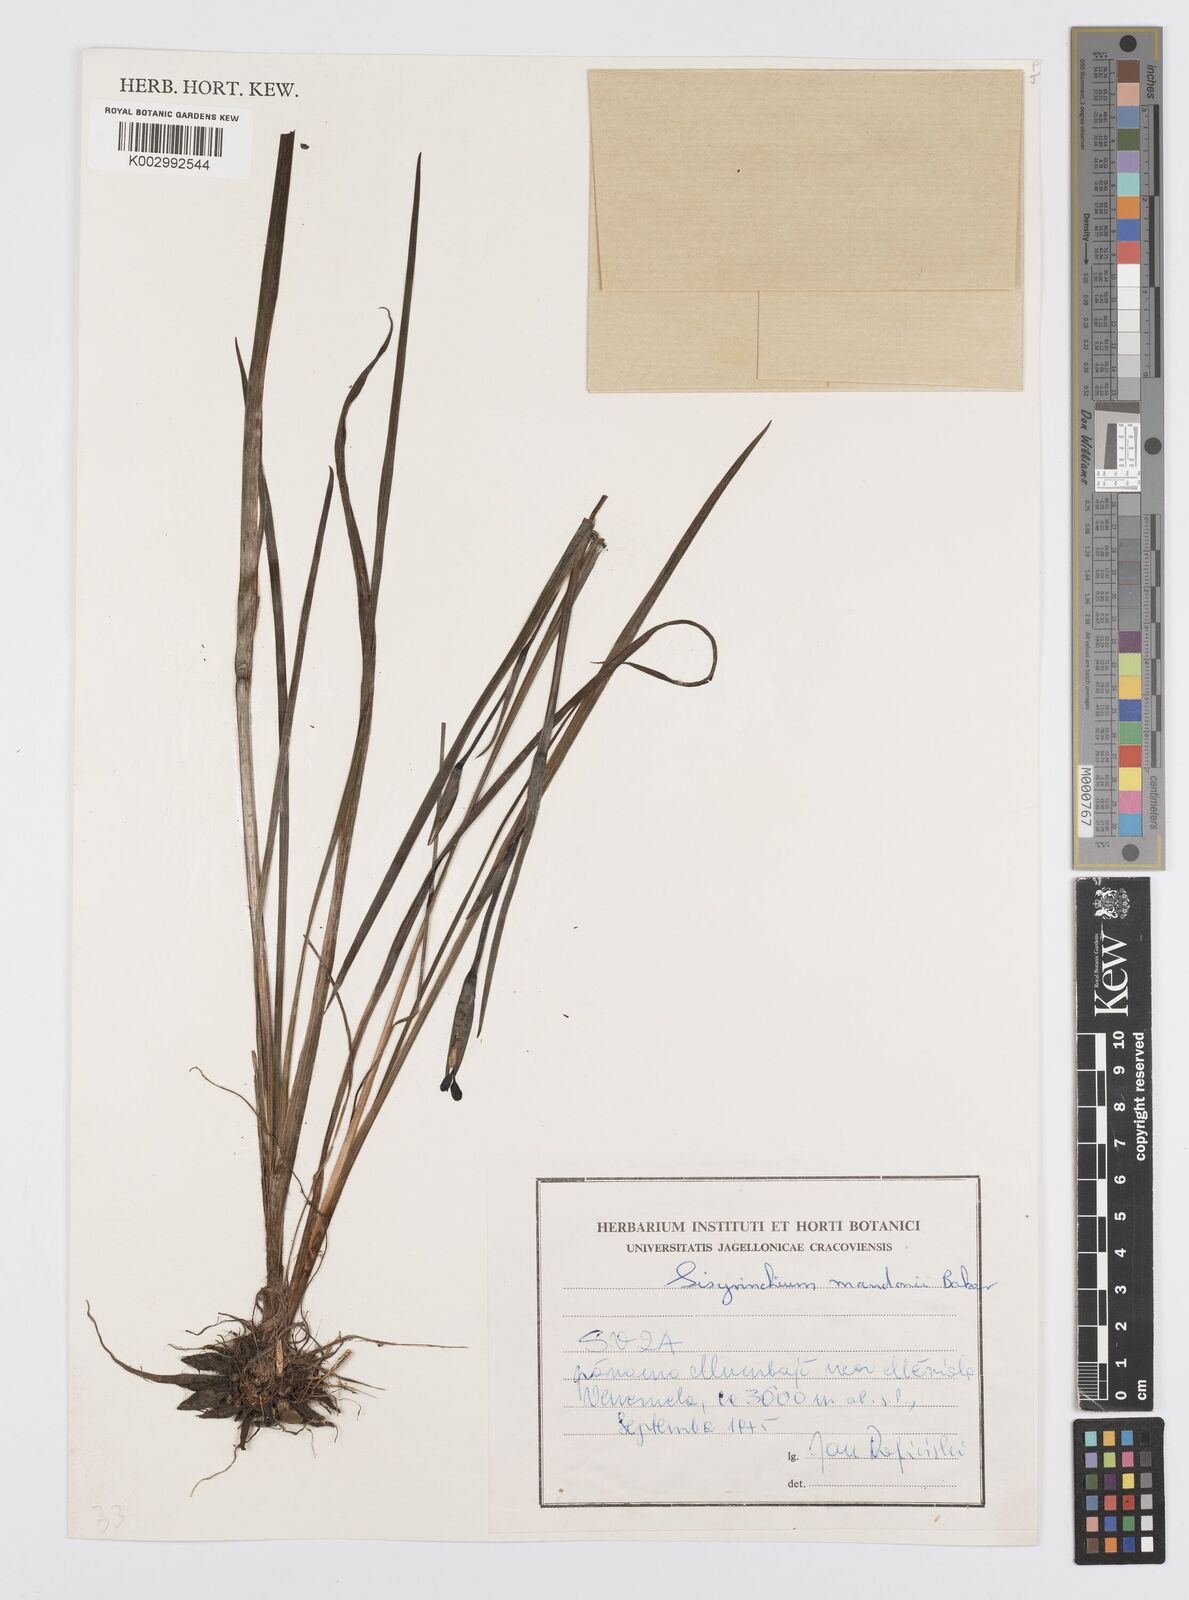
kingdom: Plantae
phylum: Tracheophyta
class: Liliopsida
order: Asparagales
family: Iridaceae
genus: Sisyrinchium
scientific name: Sisyrinchium mandonii
